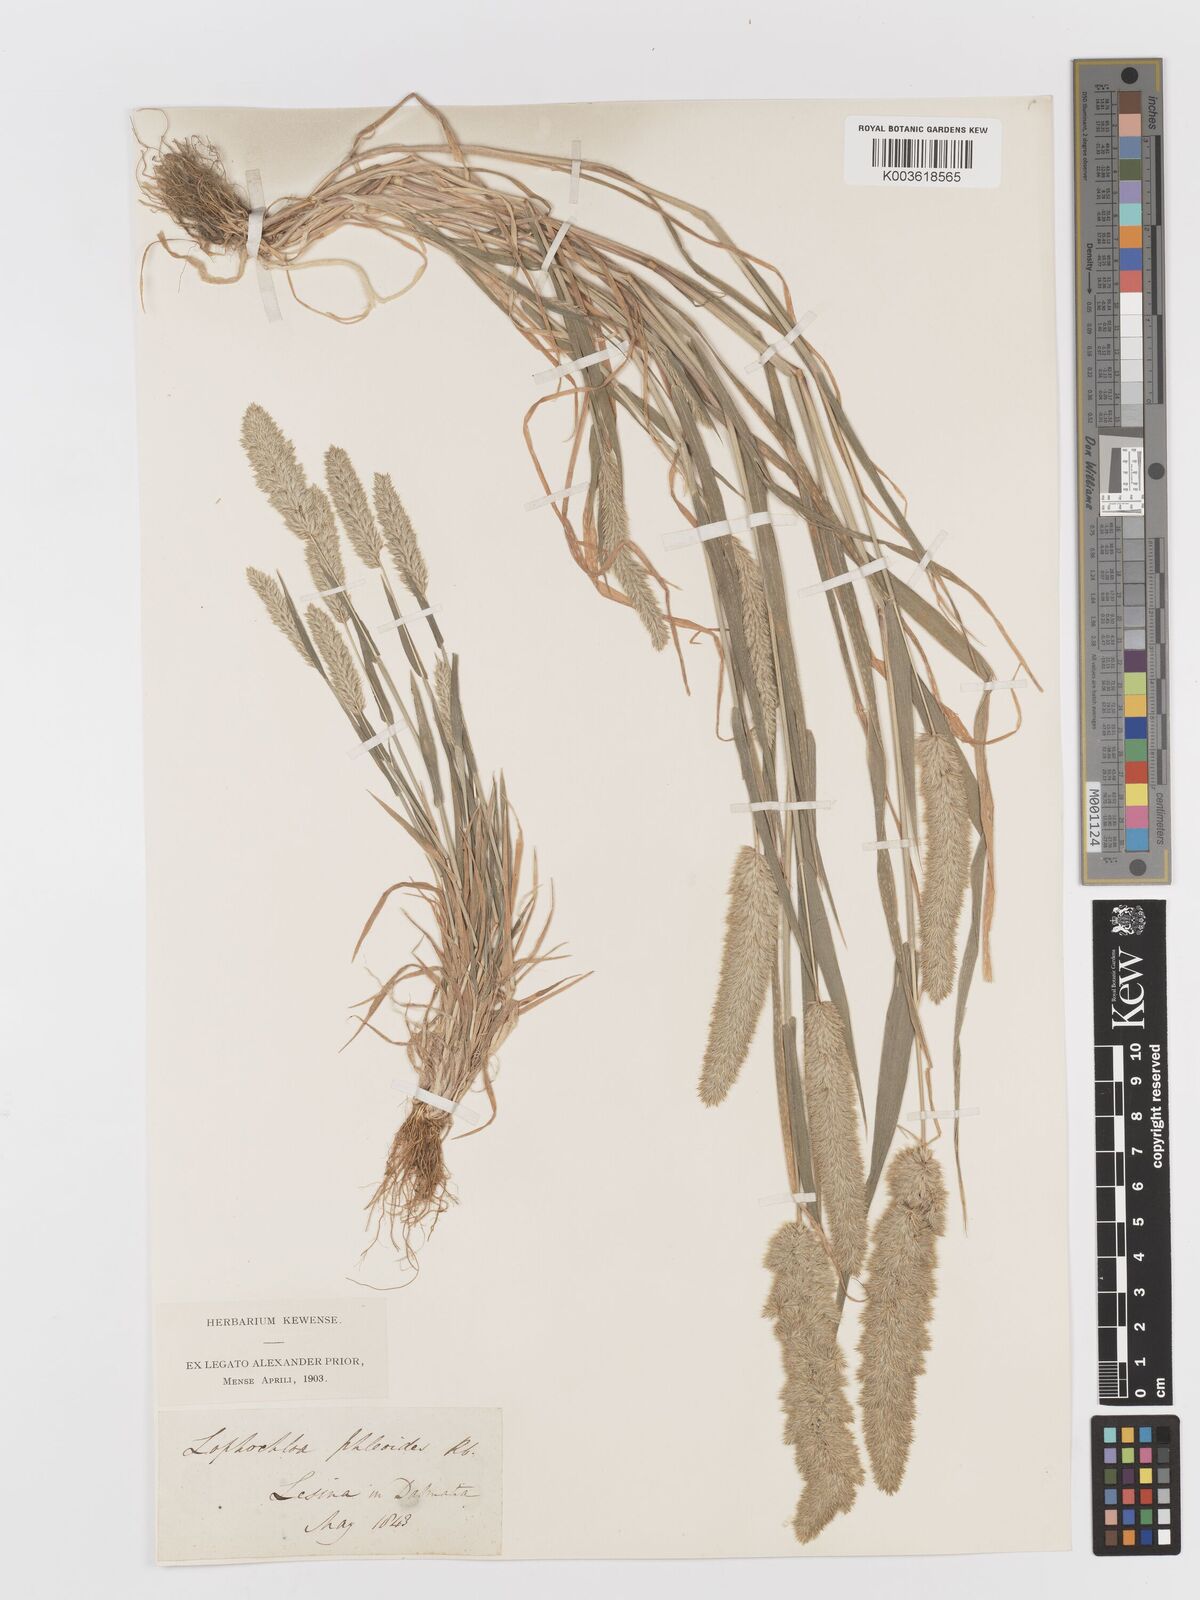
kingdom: Plantae
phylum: Tracheophyta
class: Liliopsida
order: Poales
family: Poaceae
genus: Rostraria
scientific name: Rostraria cristata
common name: Mediterranean hair-grass
